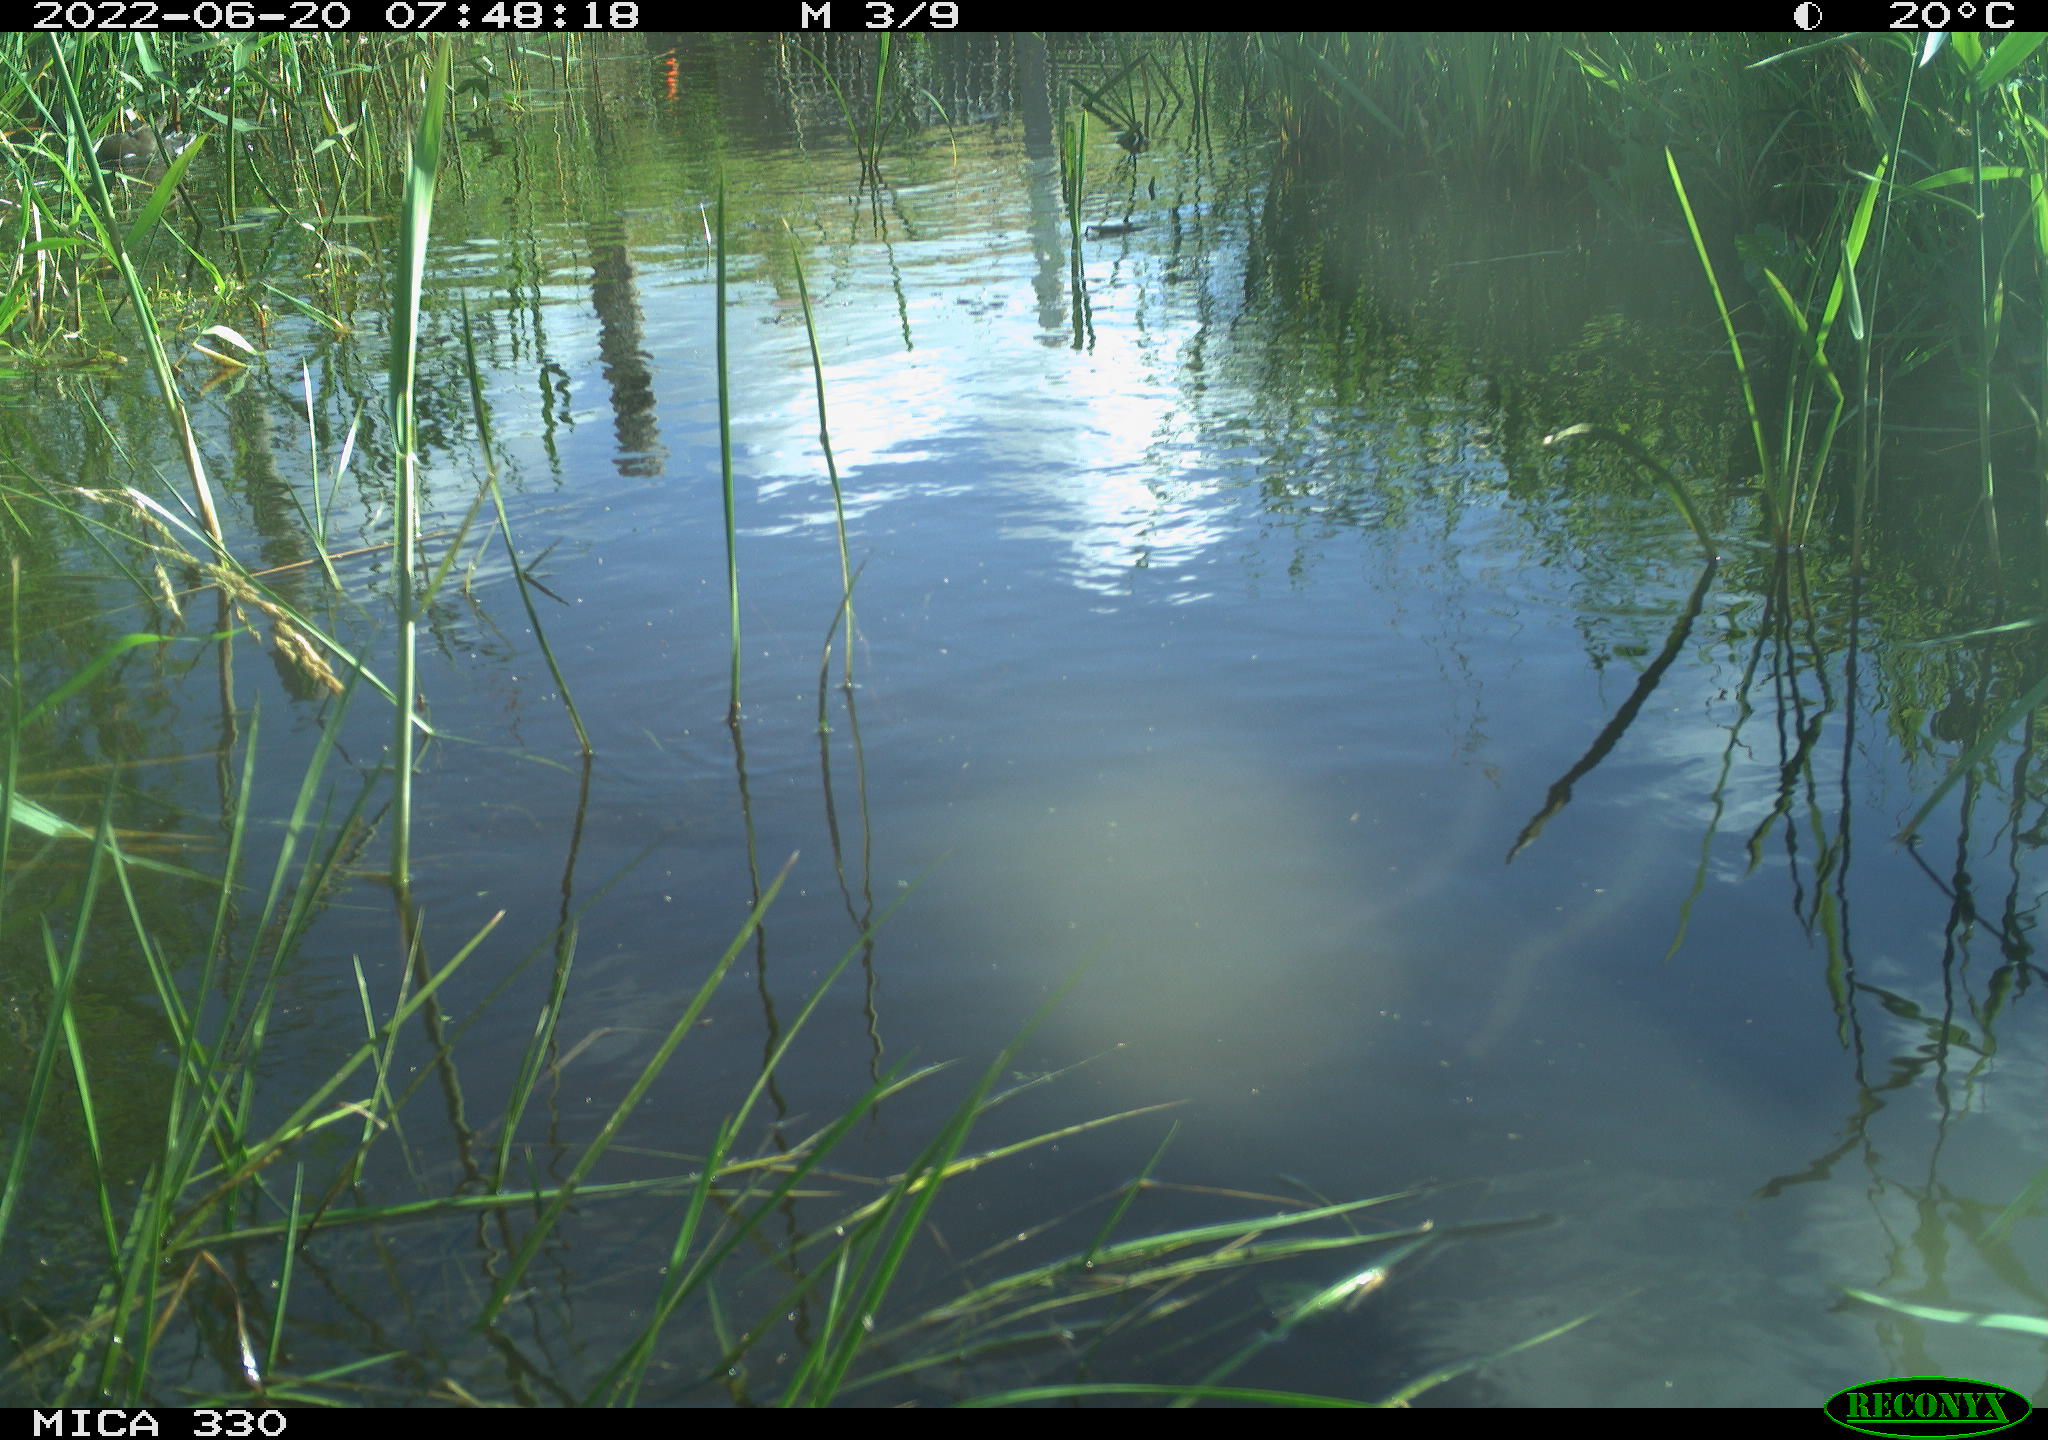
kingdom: Animalia
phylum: Chordata
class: Aves
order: Pelecaniformes
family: Ardeidae
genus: Ardea
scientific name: Ardea cinerea
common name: Grey heron
